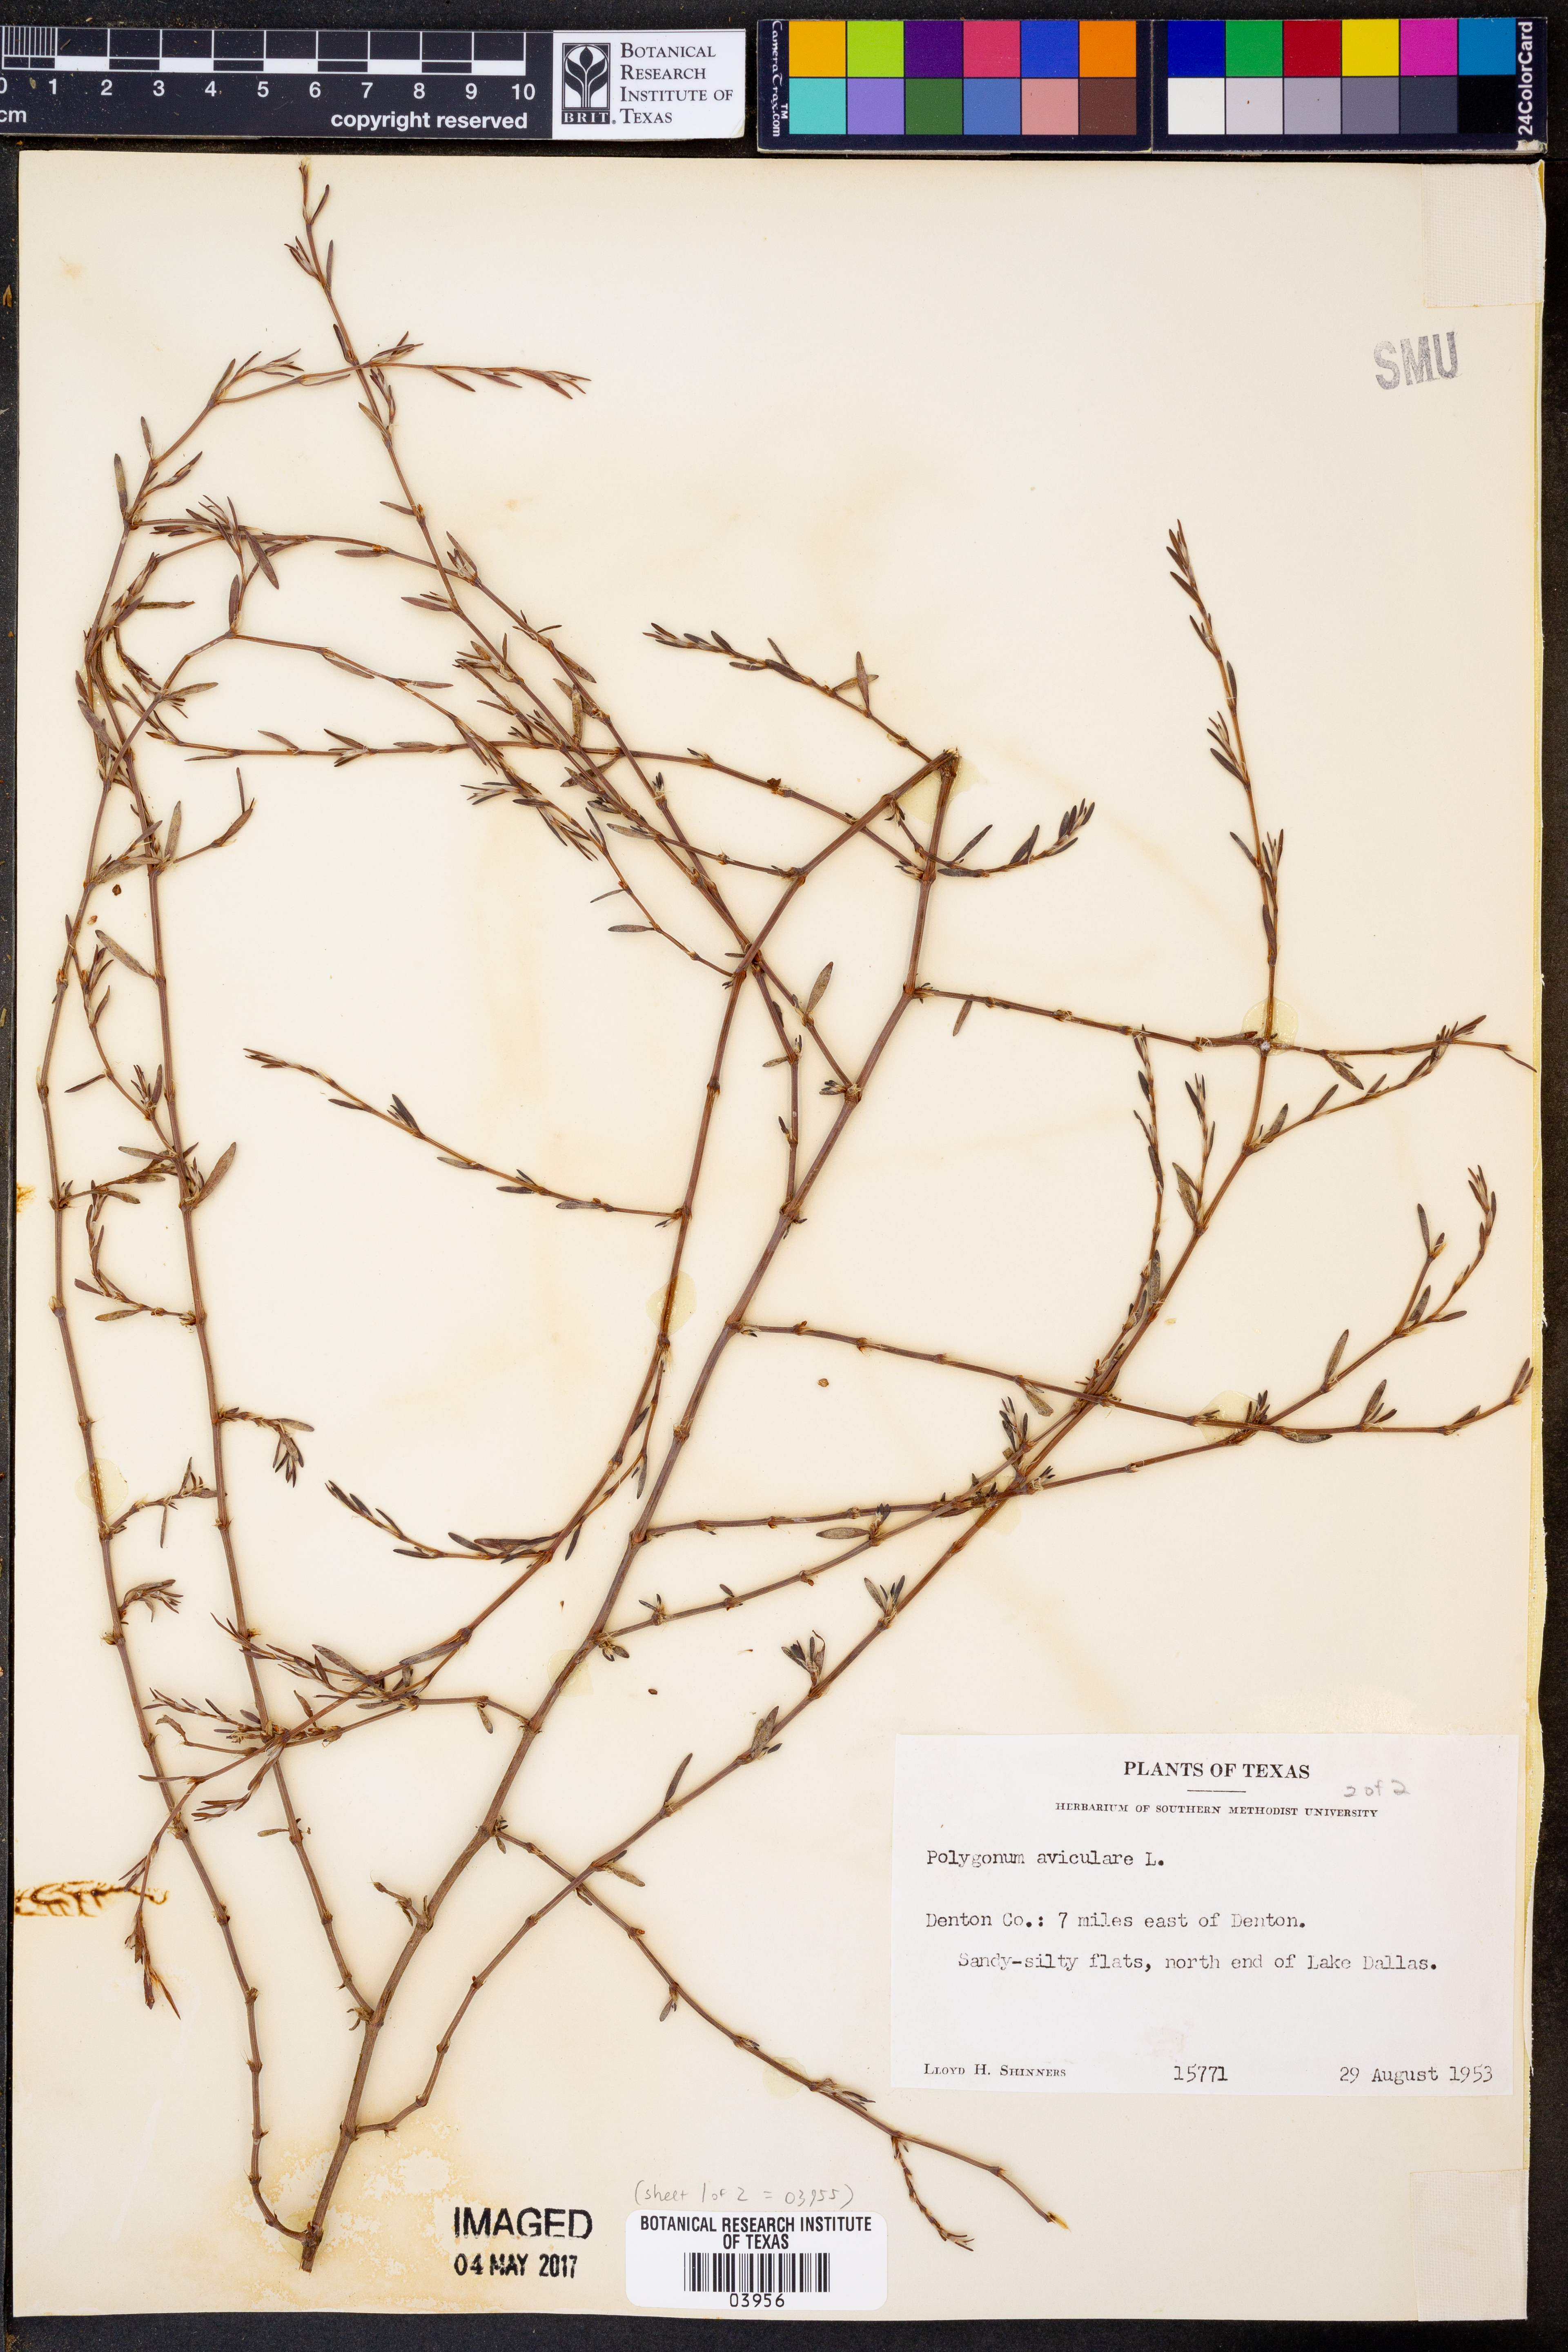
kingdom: Plantae
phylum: Tracheophyta
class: Magnoliopsida
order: Caryophyllales
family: Polygonaceae
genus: Polygonum
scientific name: Polygonum aviculare
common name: Prostrate knotweed
